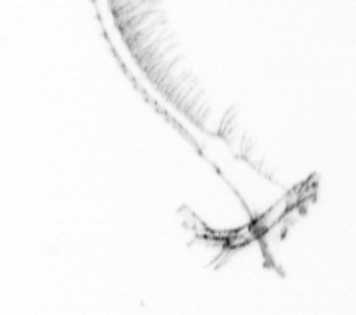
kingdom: Chromista
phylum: Ochrophyta
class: Bacillariophyceae
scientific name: Bacillariophyceae
